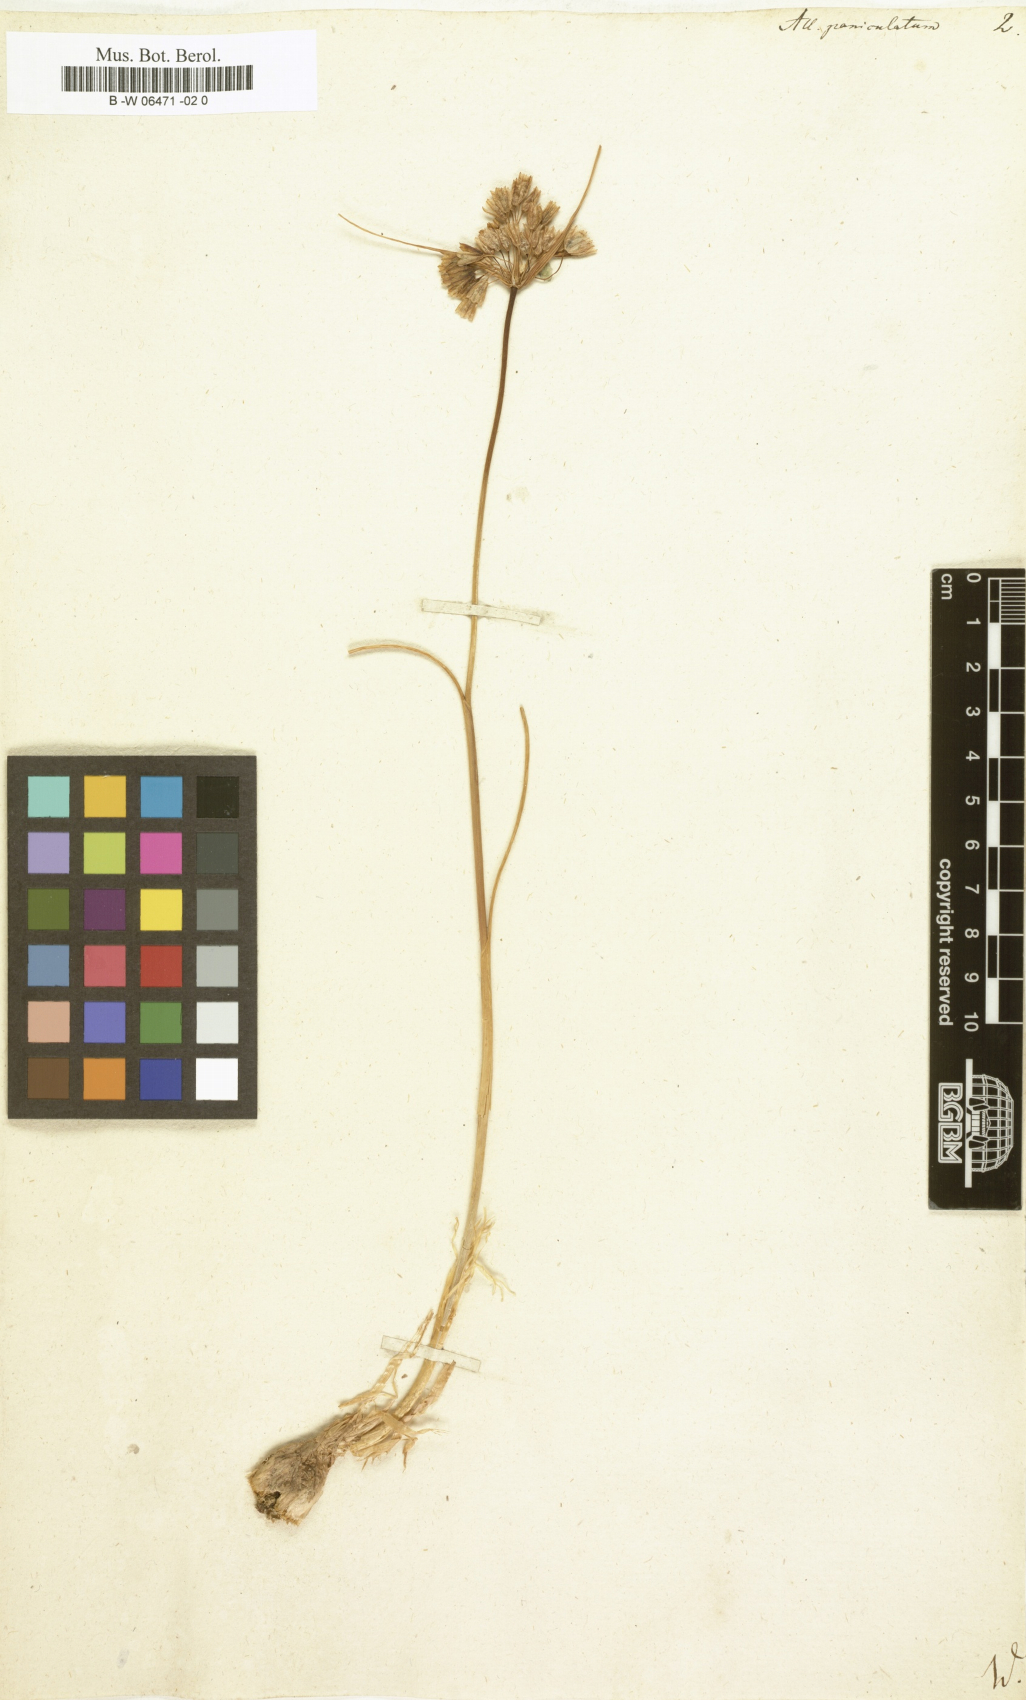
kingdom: Plantae
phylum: Tracheophyta
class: Liliopsida
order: Asparagales
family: Amaryllidaceae
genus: Allium
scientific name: Allium paniculatum
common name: Pale garlic
